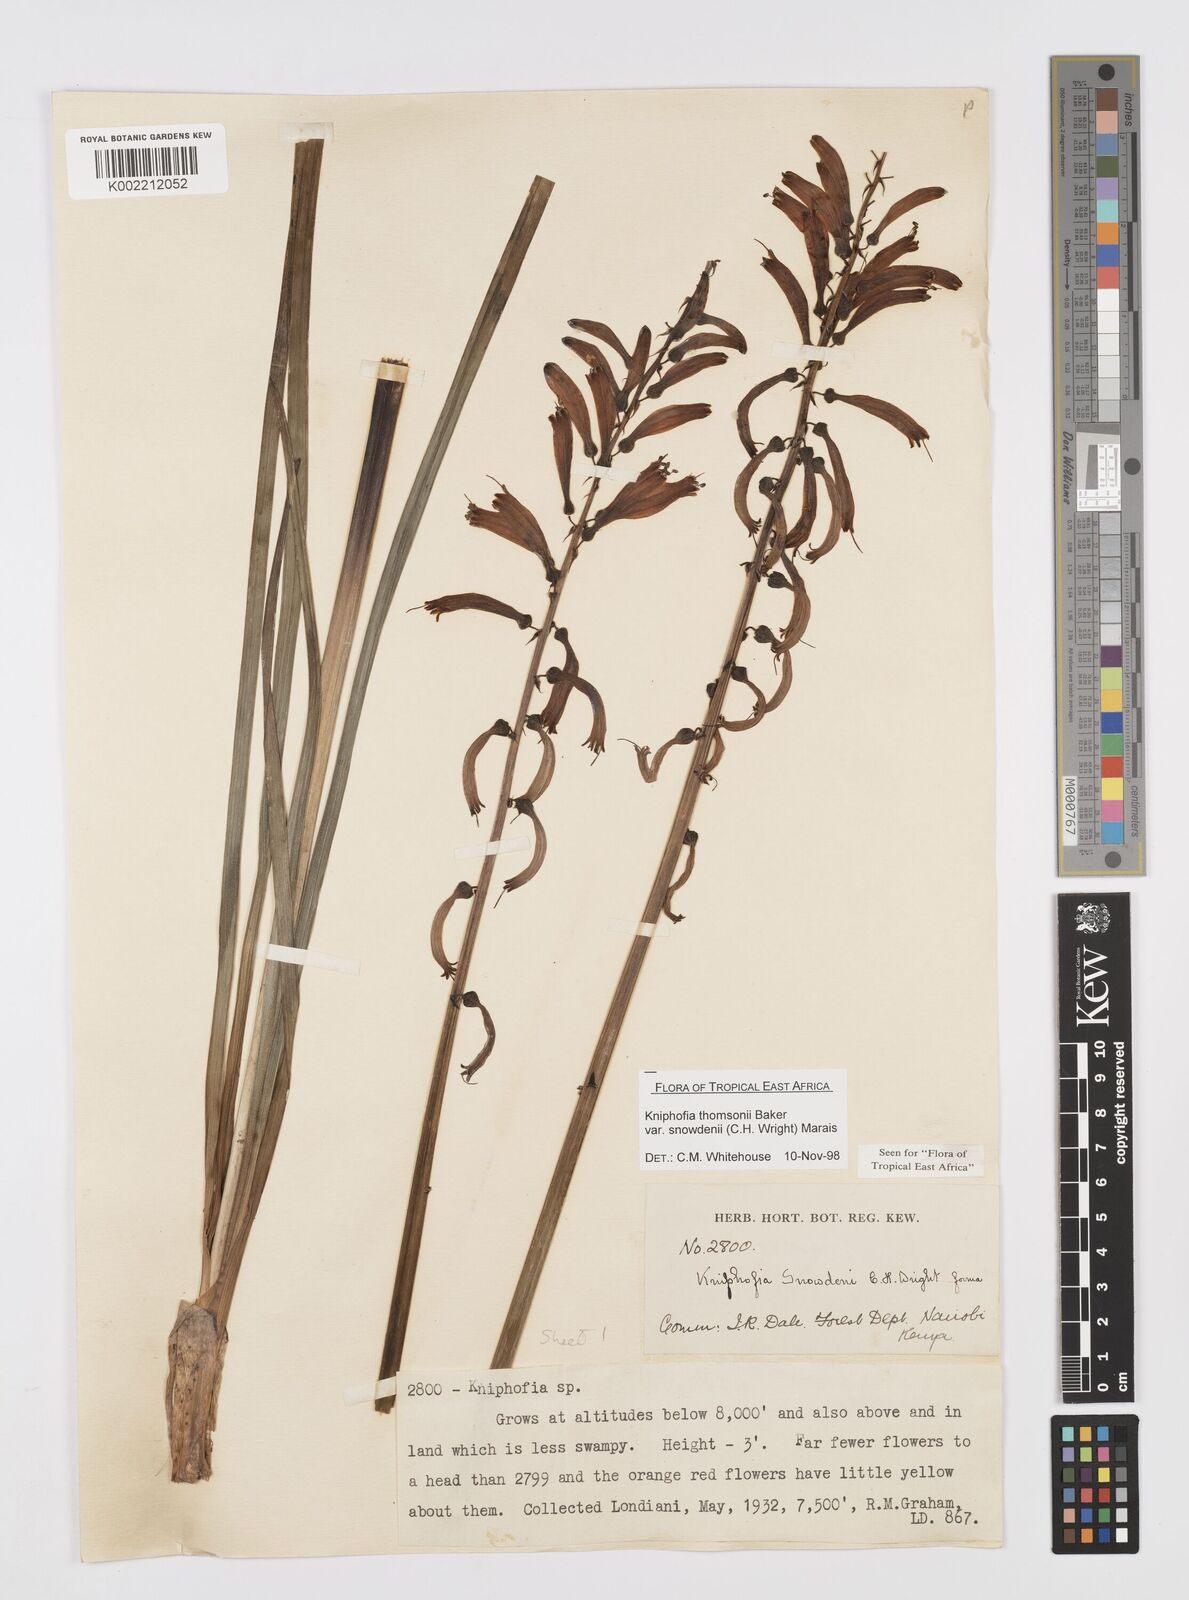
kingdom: Plantae
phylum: Tracheophyta
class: Liliopsida
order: Asparagales
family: Asphodelaceae
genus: Kniphofia
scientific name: Kniphofia
